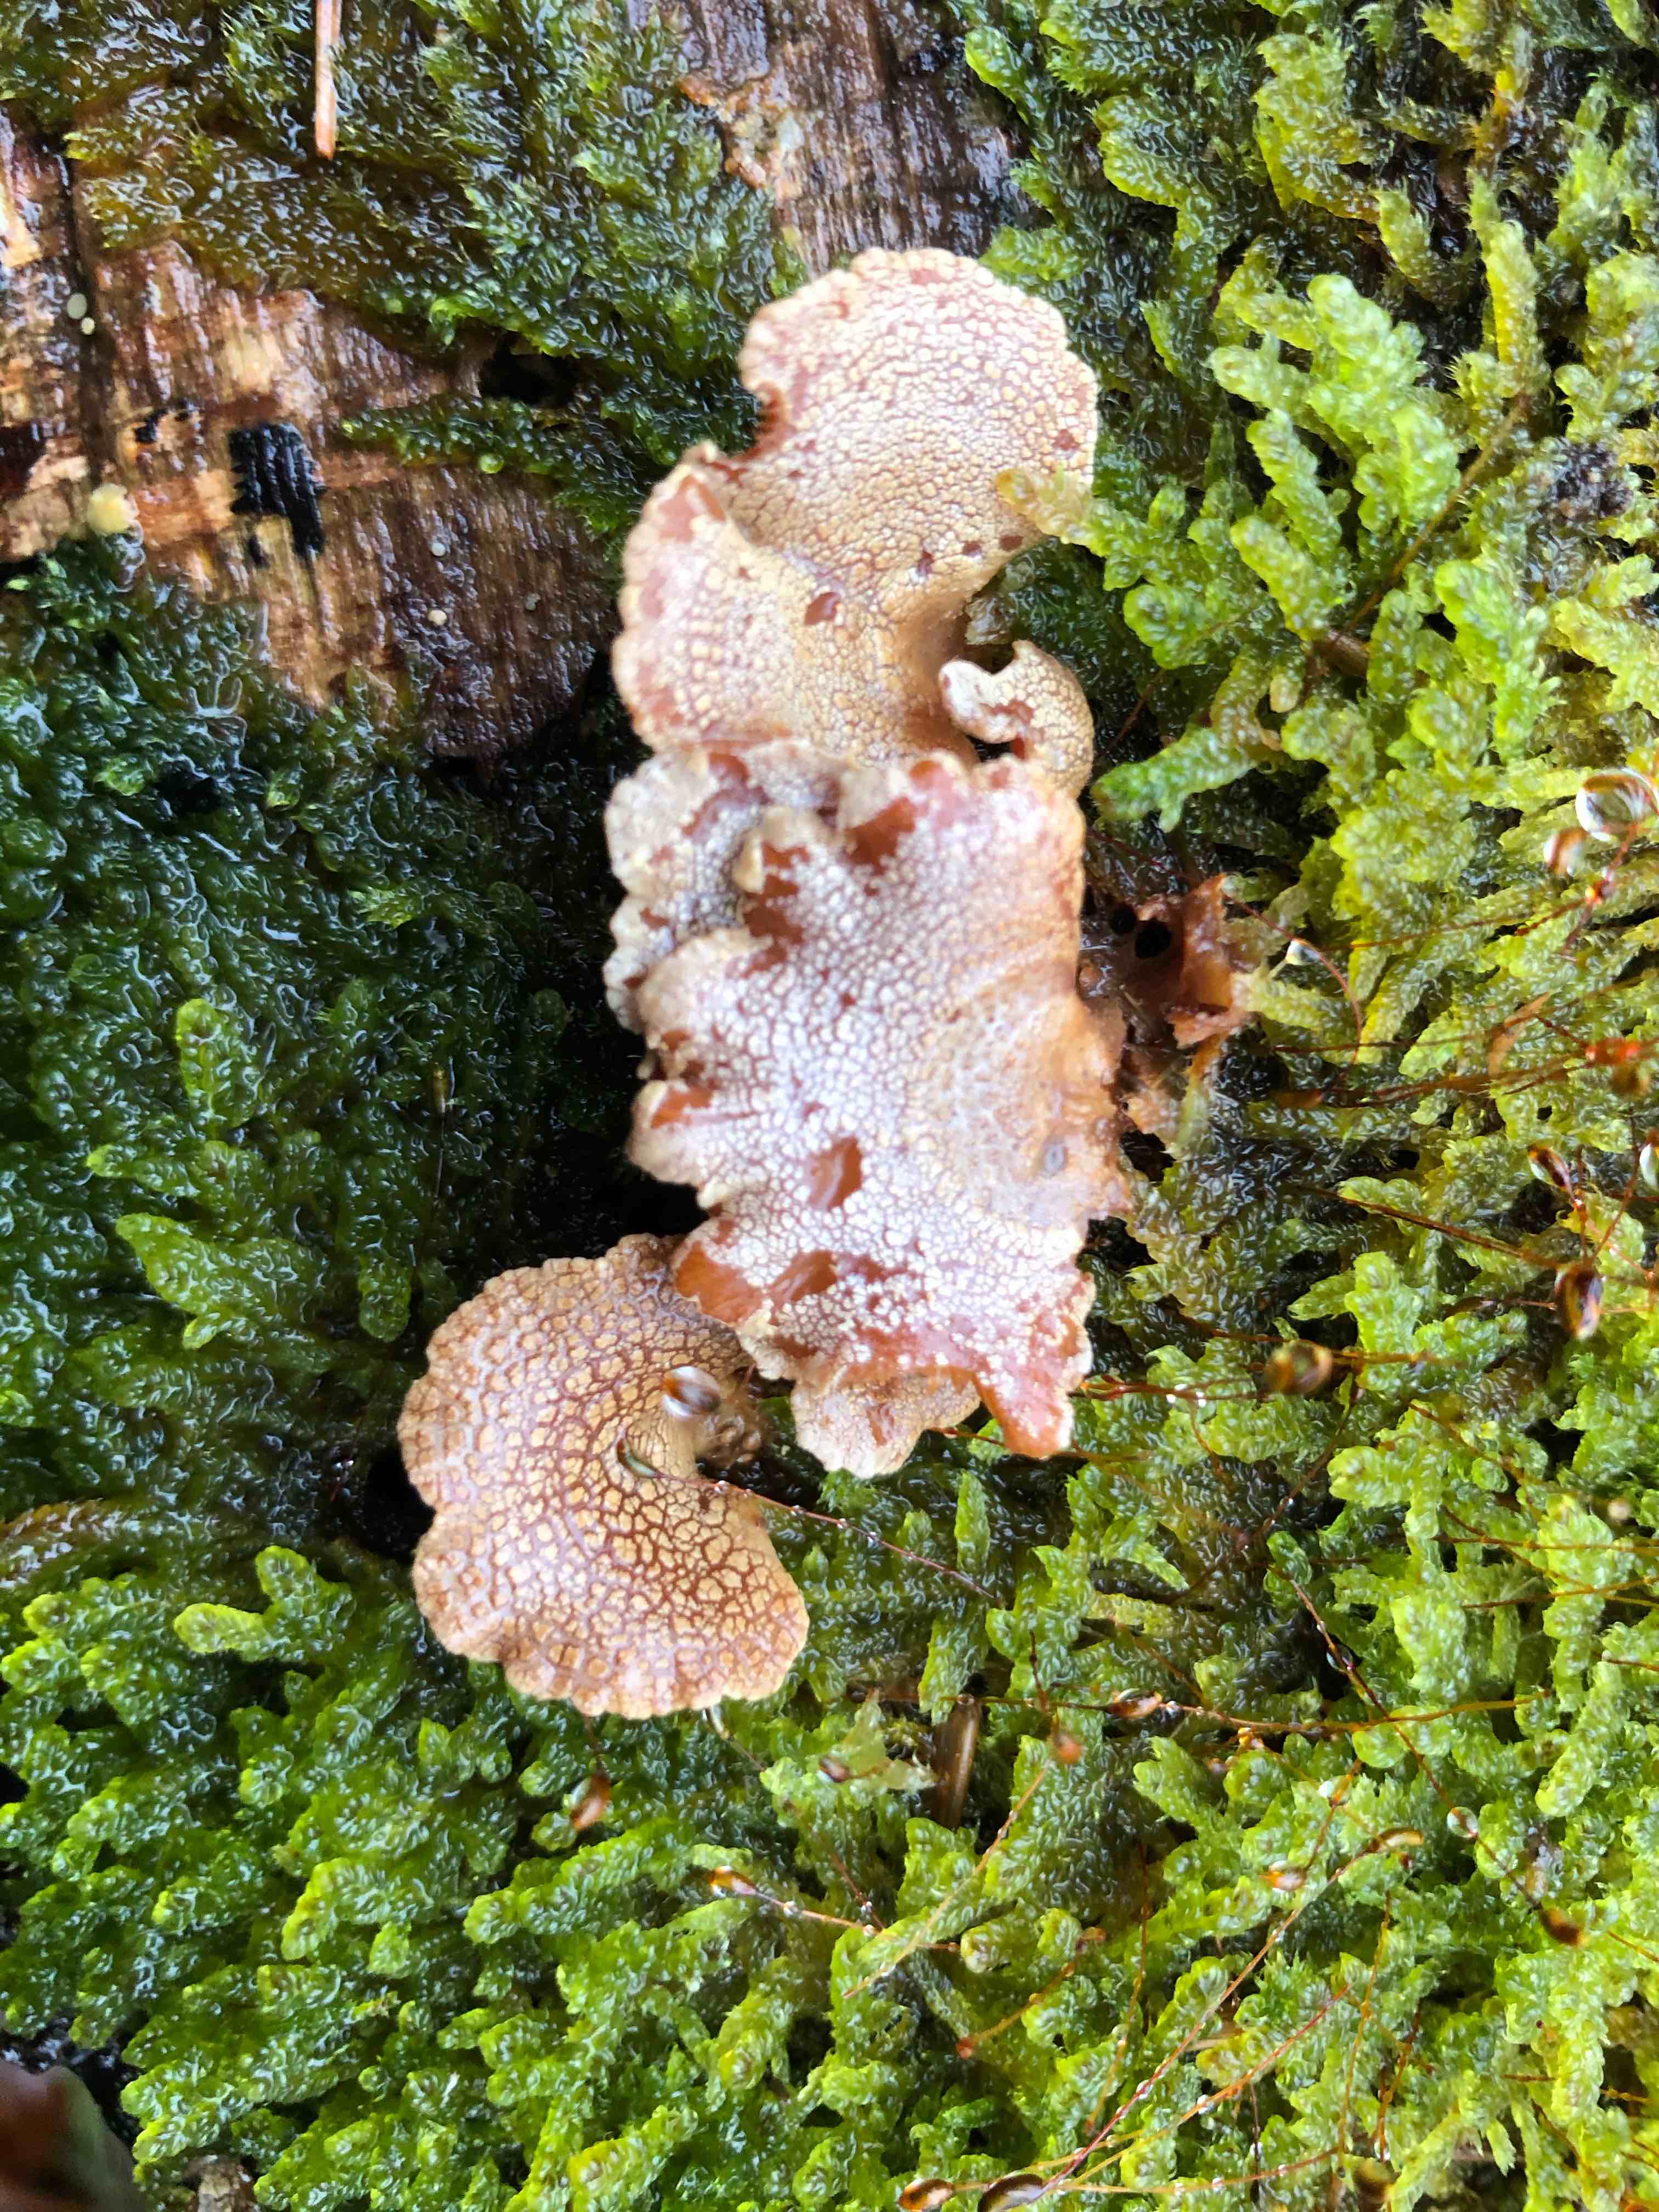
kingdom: Fungi
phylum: Basidiomycota
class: Agaricomycetes
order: Agaricales
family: Mycenaceae
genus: Panellus
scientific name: Panellus stipticus
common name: kliddet epaulethat
